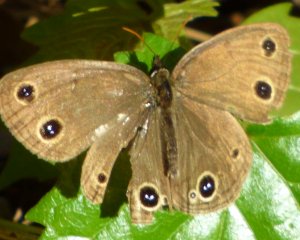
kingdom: Animalia
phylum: Arthropoda
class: Insecta
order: Lepidoptera
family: Nymphalidae
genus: Euptychia
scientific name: Euptychia cymela
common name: Little Wood Satyr
